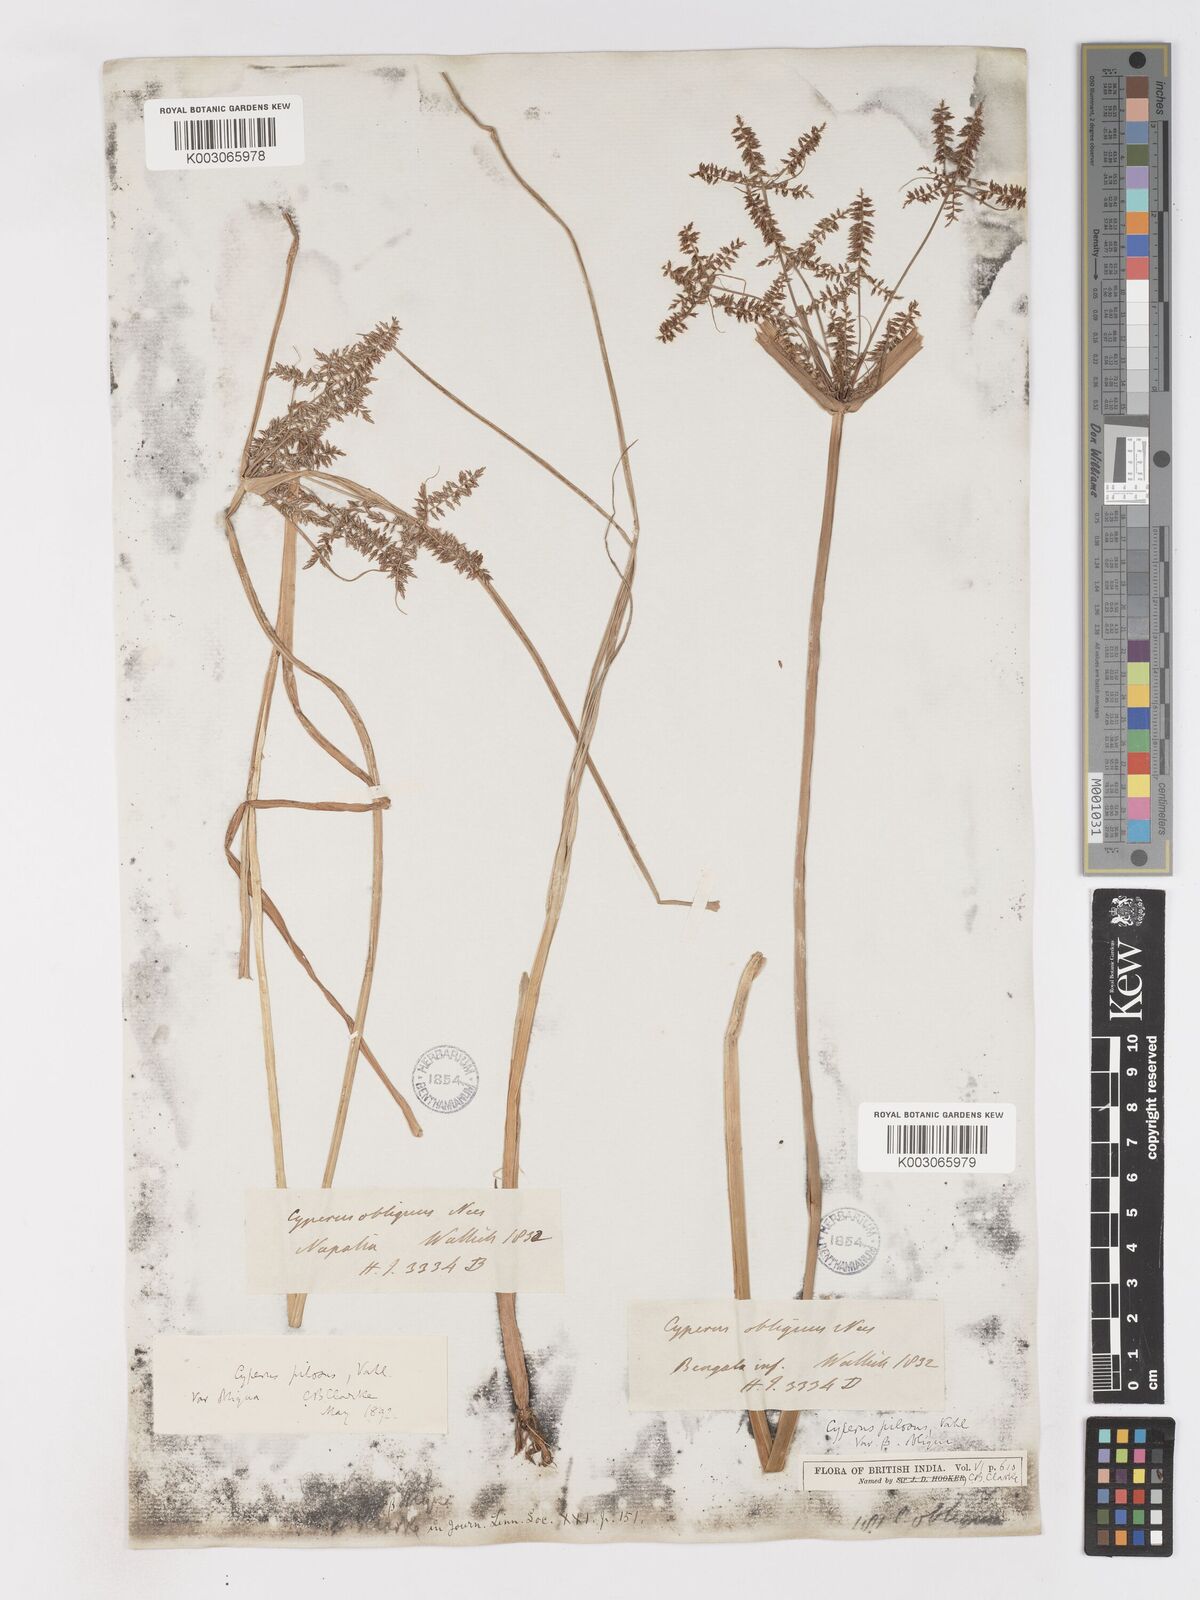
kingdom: Plantae
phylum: Tracheophyta
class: Liliopsida
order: Poales
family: Cyperaceae
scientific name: Cyperaceae
